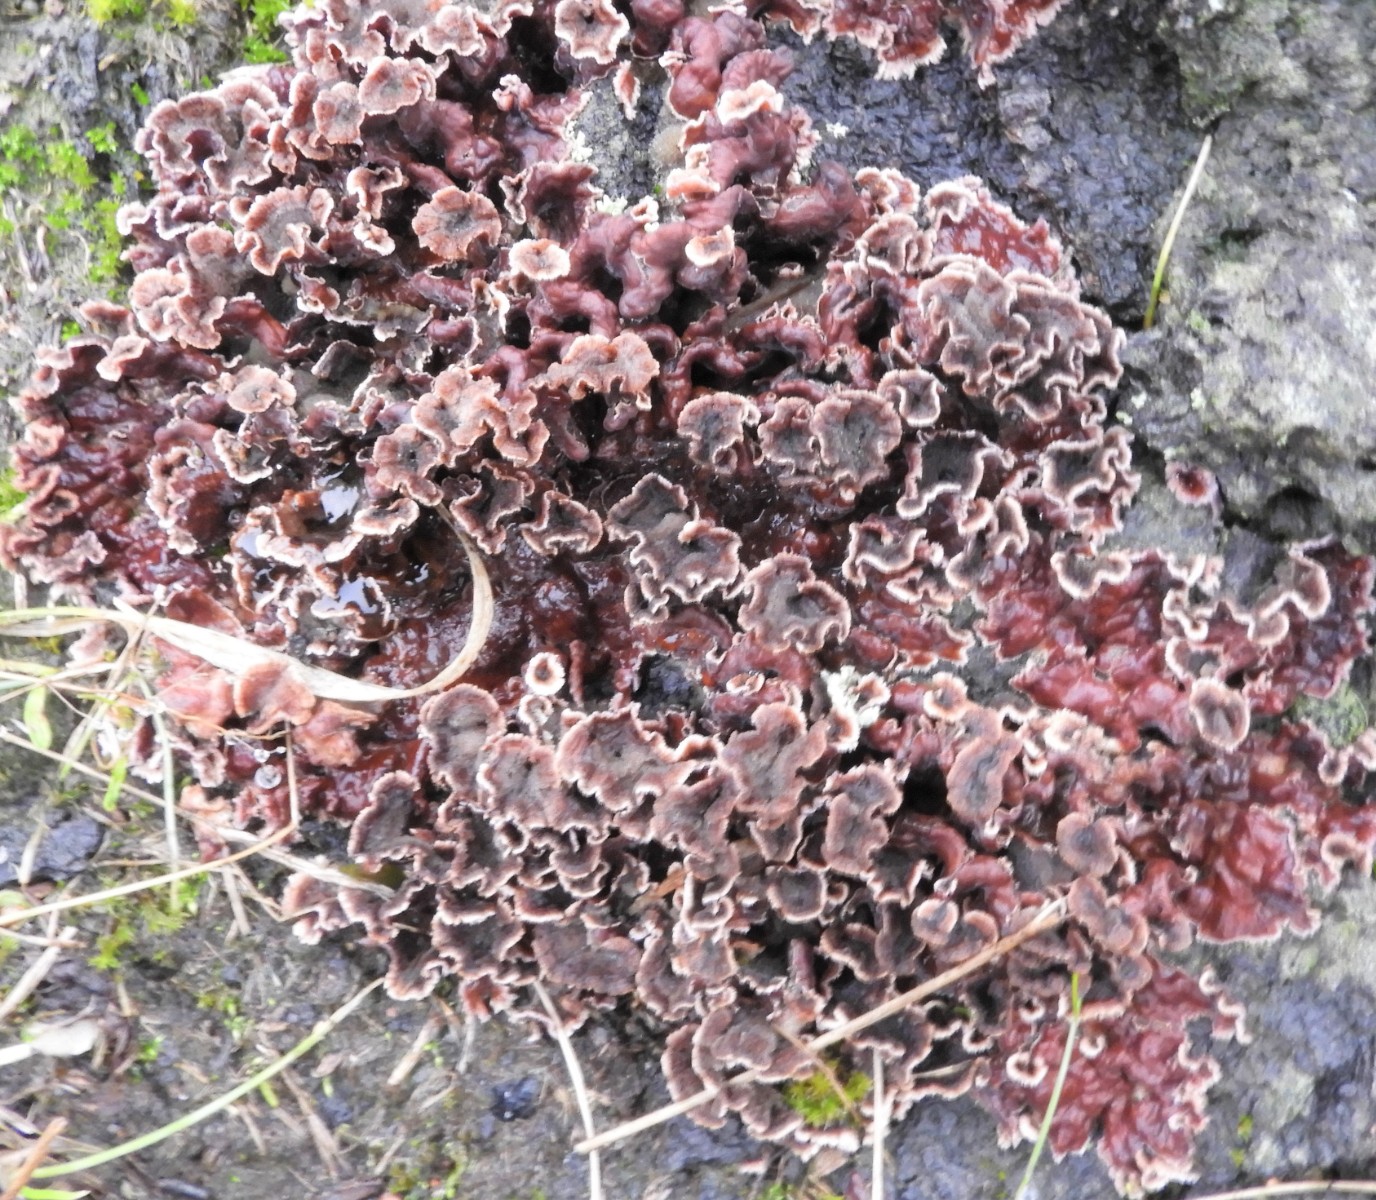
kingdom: Fungi
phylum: Basidiomycota
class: Agaricomycetes
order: Agaricales
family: Cyphellaceae
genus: Chondrostereum
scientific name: Chondrostereum purpureum
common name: purpurlædersvamp
